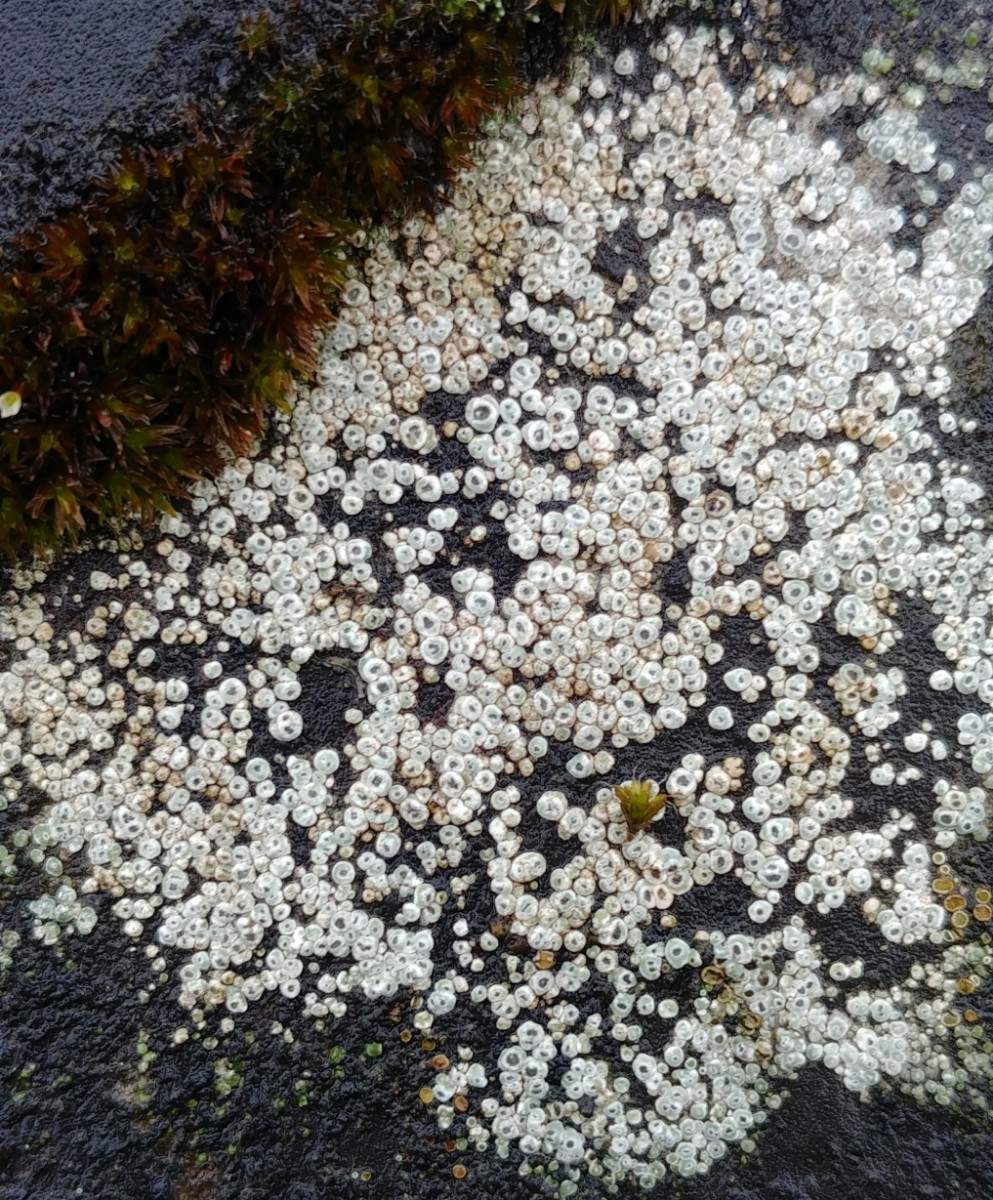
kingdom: Fungi
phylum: Ascomycota
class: Lecanoromycetes
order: Pertusariales
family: Megasporaceae
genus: Circinaria
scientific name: Circinaria contorta
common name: indviklet hulskivelav
